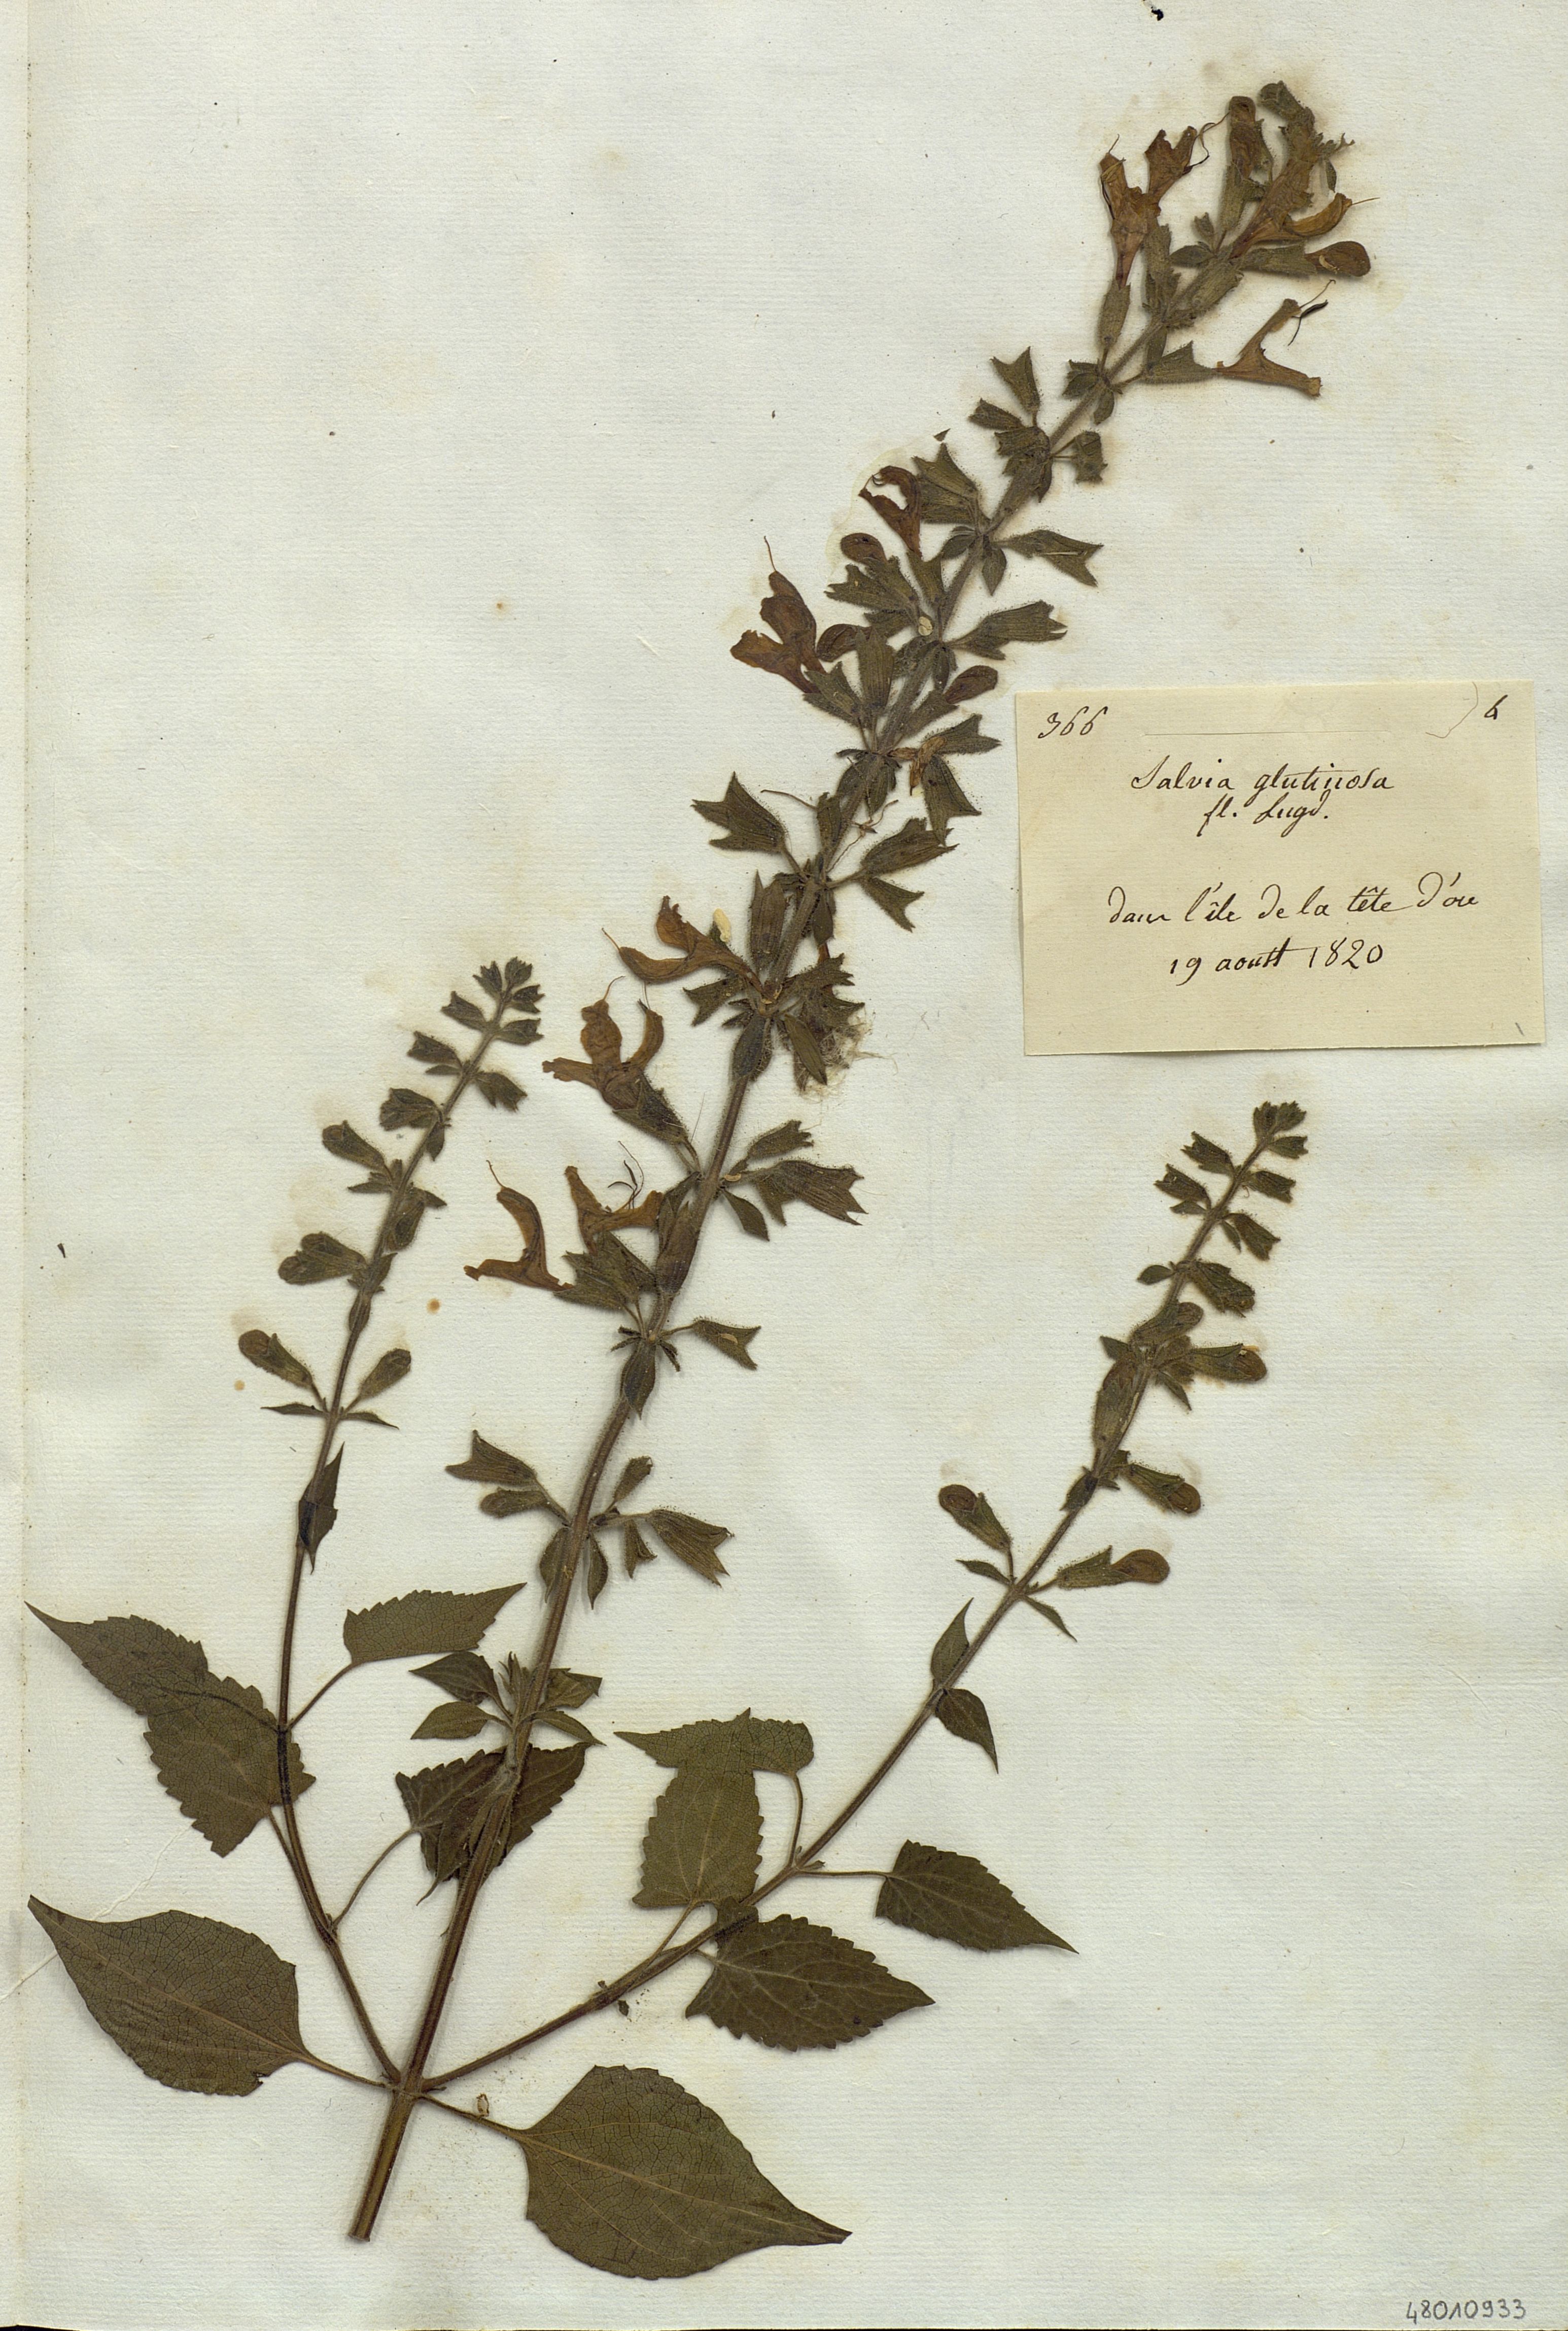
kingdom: Plantae
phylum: Tracheophyta
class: Magnoliopsida
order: Lamiales
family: Lamiaceae
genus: Salvia
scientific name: Salvia glutinosa
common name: Sticky clary
